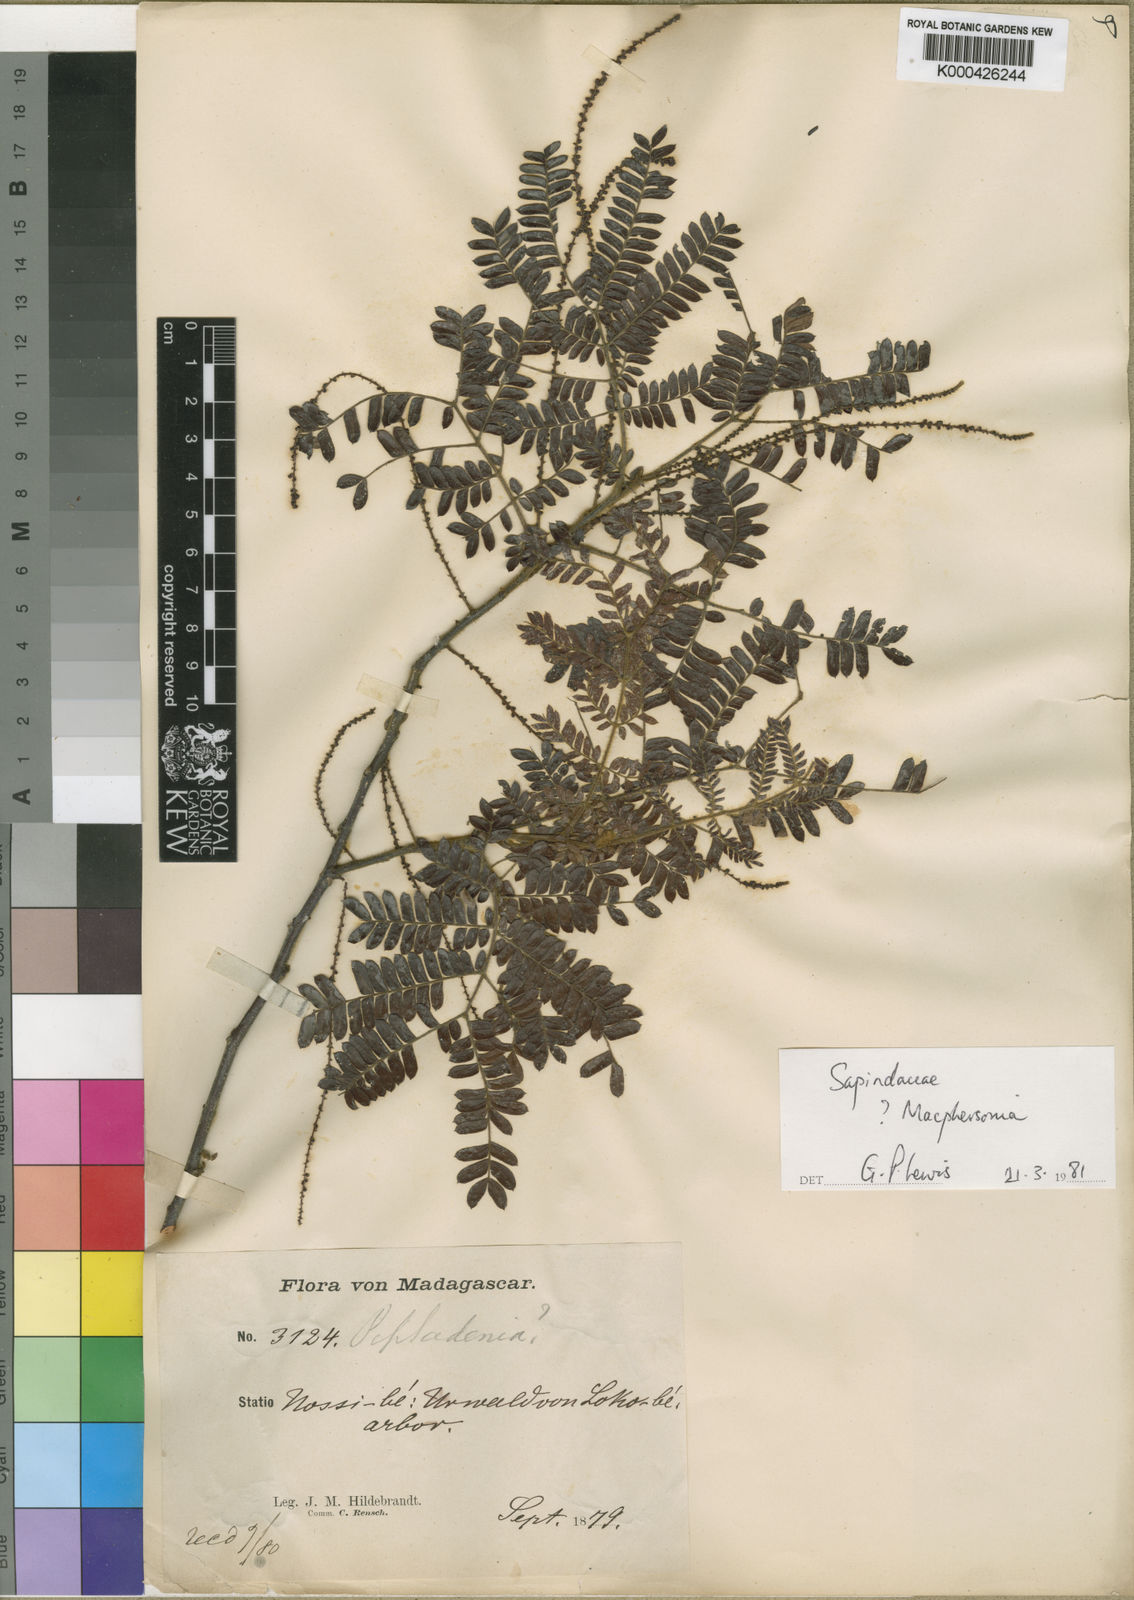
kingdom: Plantae
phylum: Tracheophyta
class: Magnoliopsida
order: Sapindales
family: Sapindaceae
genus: Macphersonia
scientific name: Macphersonia gracilis
